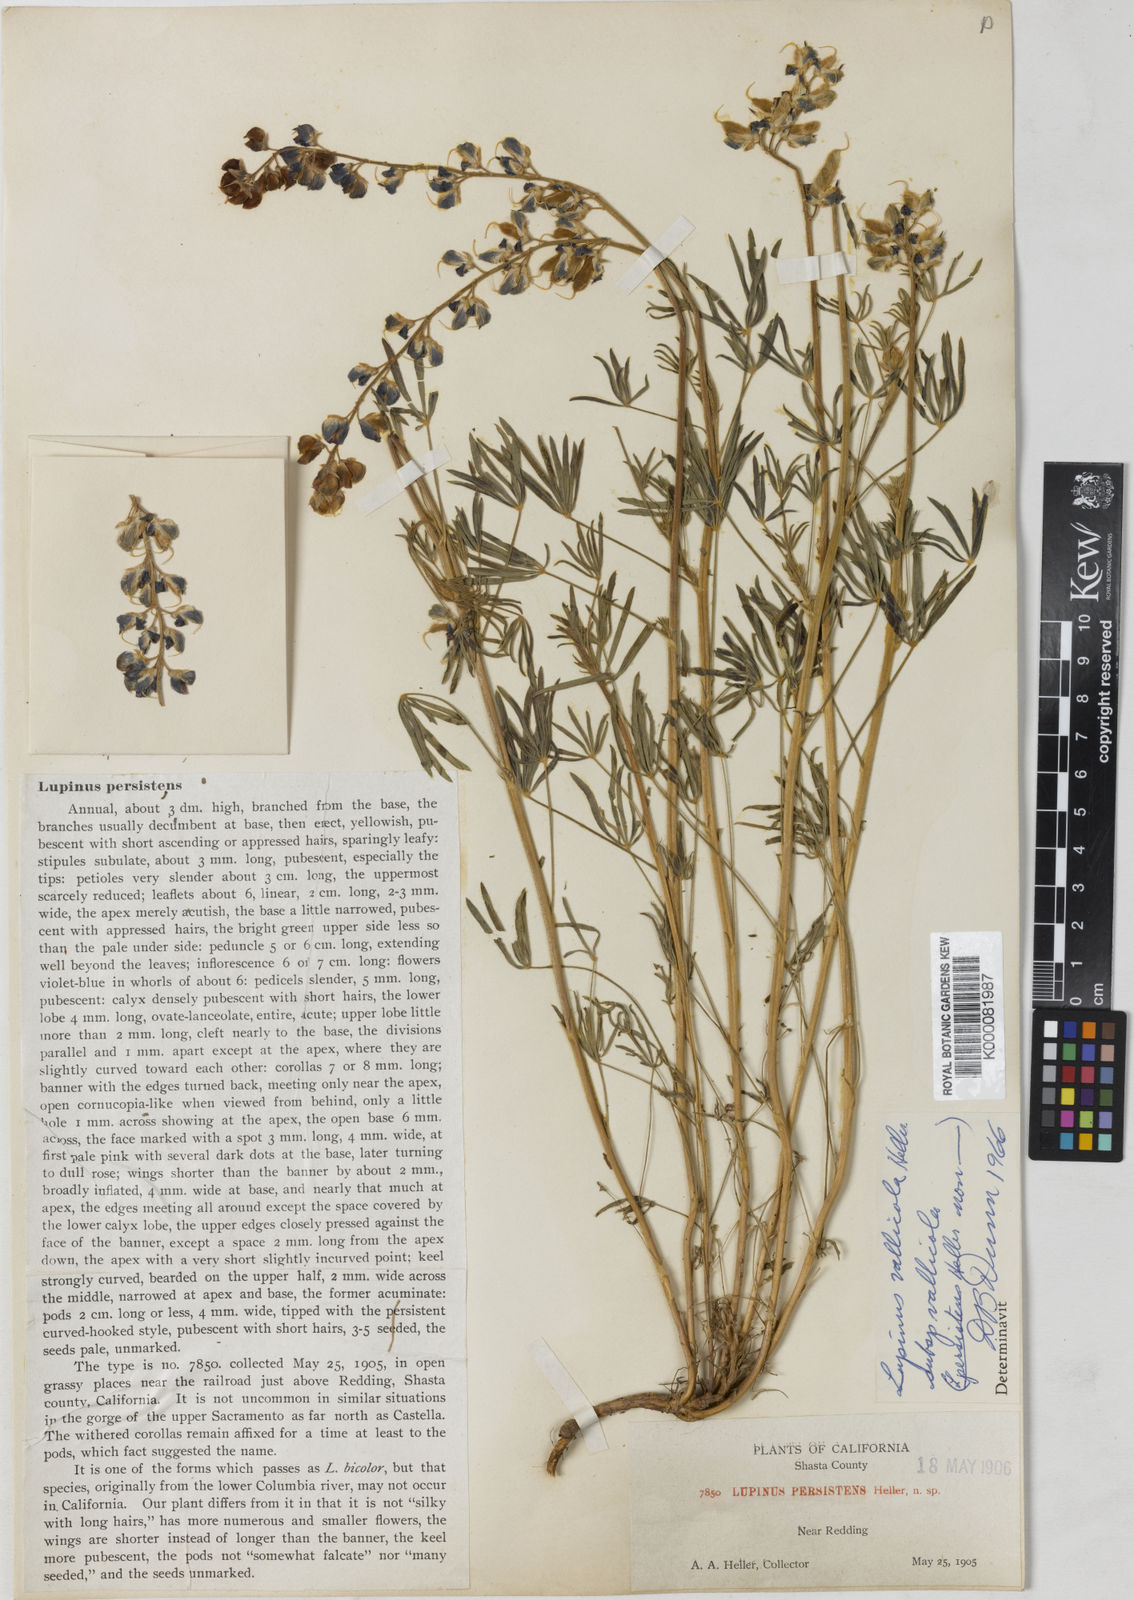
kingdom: Plantae
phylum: Tracheophyta
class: Magnoliopsida
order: Fabales
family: Fabaceae
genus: Lupinus
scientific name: Lupinus vallicola
